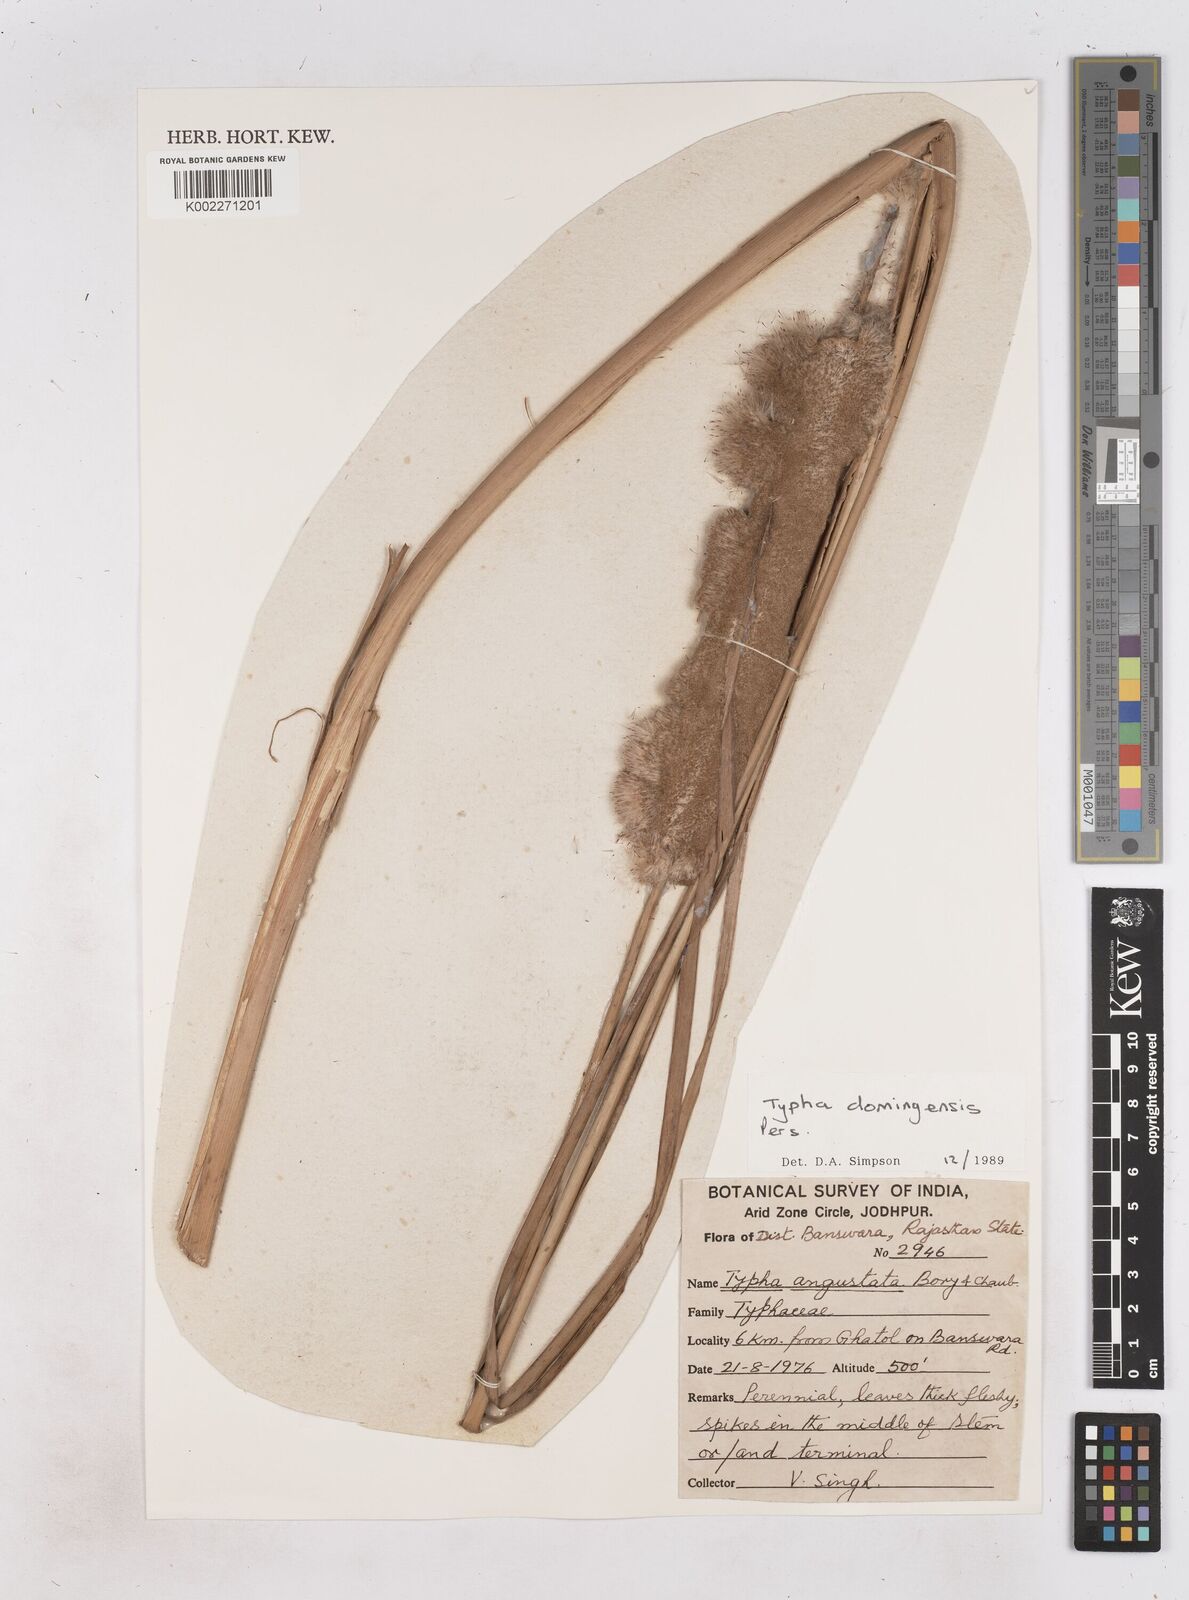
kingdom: Plantae
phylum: Tracheophyta
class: Liliopsida
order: Poales
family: Typhaceae
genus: Typha
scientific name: Typha domingensis
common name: Southern cattail
